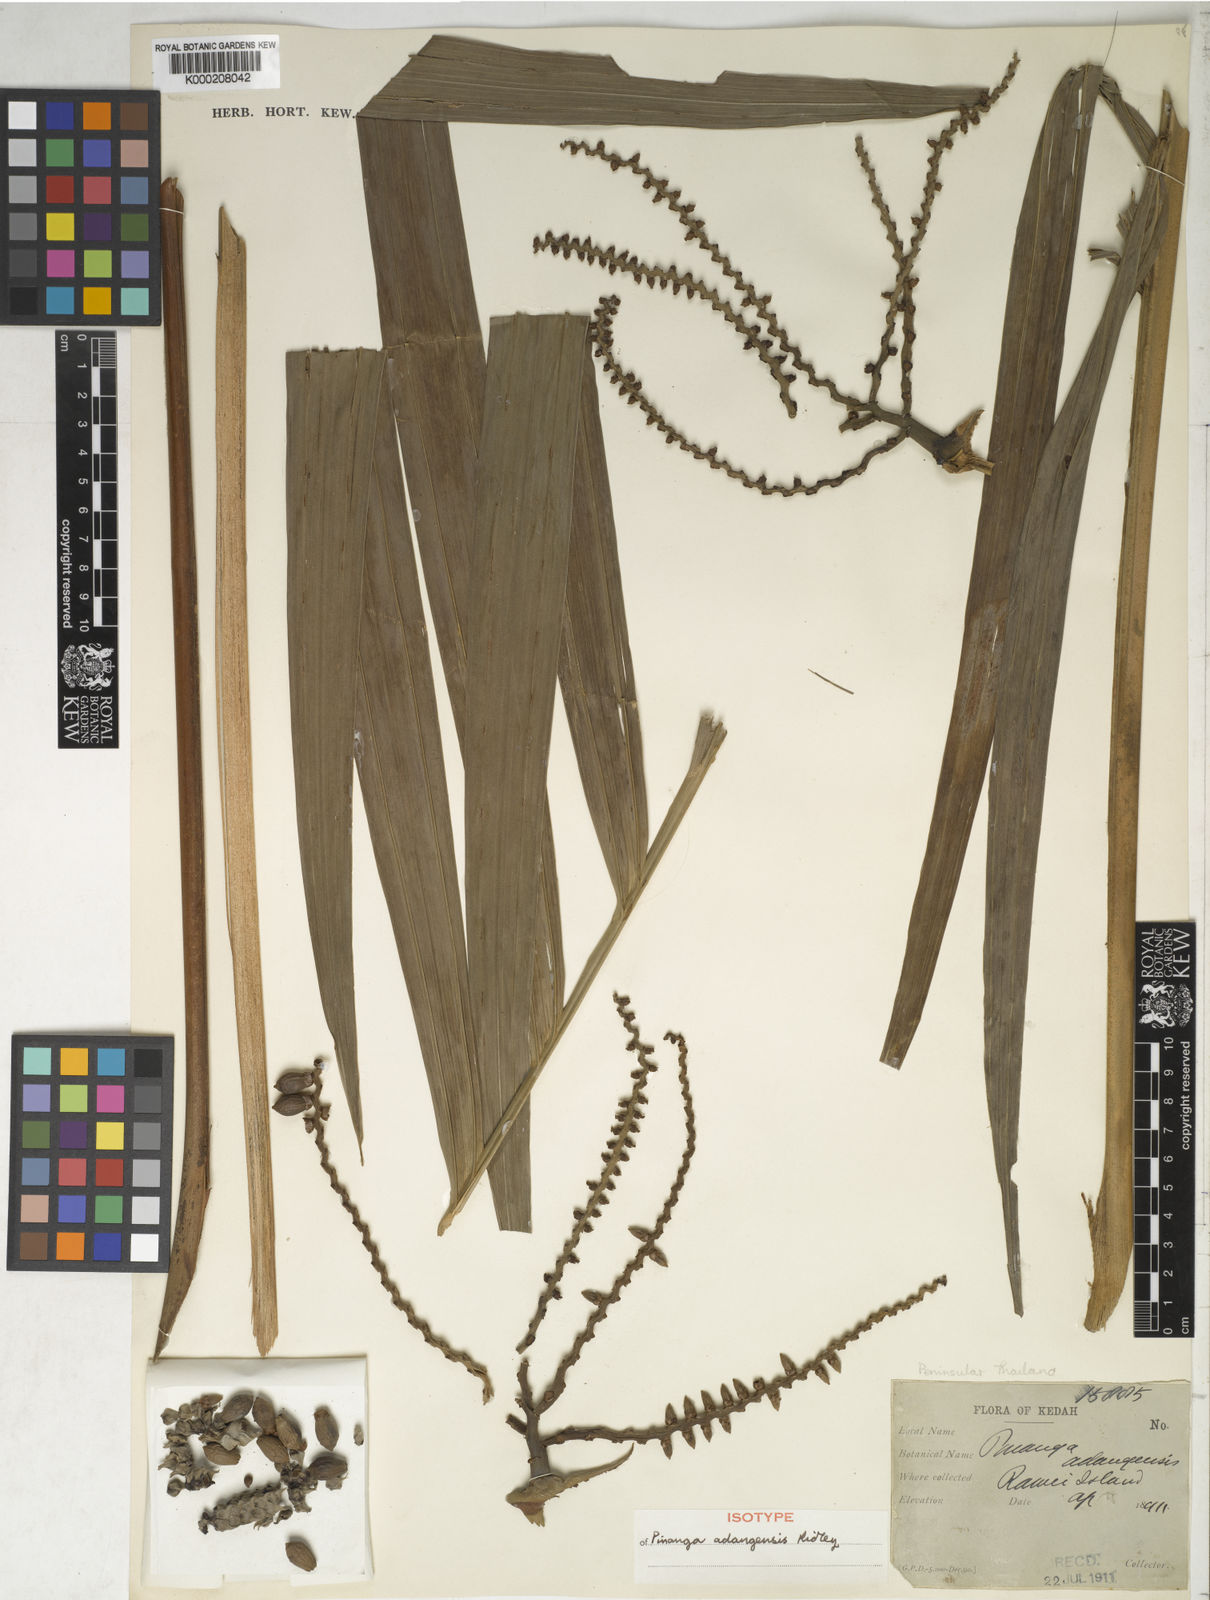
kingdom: Plantae
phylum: Tracheophyta
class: Liliopsida
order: Arecales
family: Arecaceae
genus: Pinanga
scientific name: Pinanga adangensis
